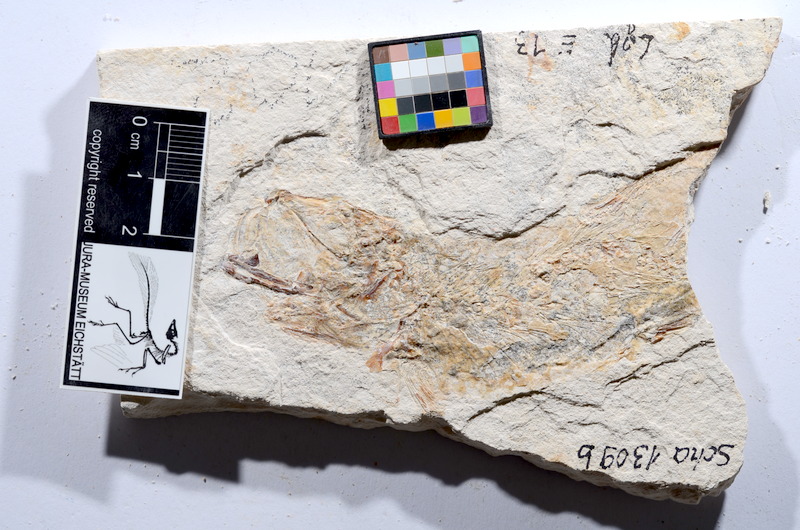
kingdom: Animalia
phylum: Chordata
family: Ascalaboidae
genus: Tharsis
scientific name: Tharsis dubius
